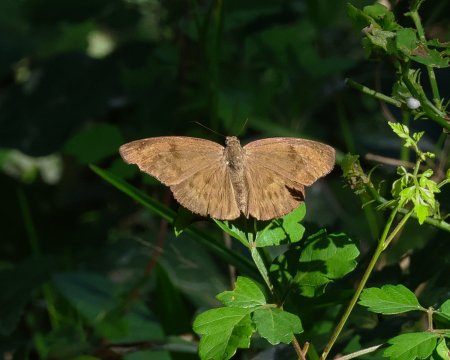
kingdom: Animalia
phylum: Arthropoda
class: Insecta
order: Lepidoptera
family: Hesperiidae
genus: Grais
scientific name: Grais stigmaticus
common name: Hermit Skipper
